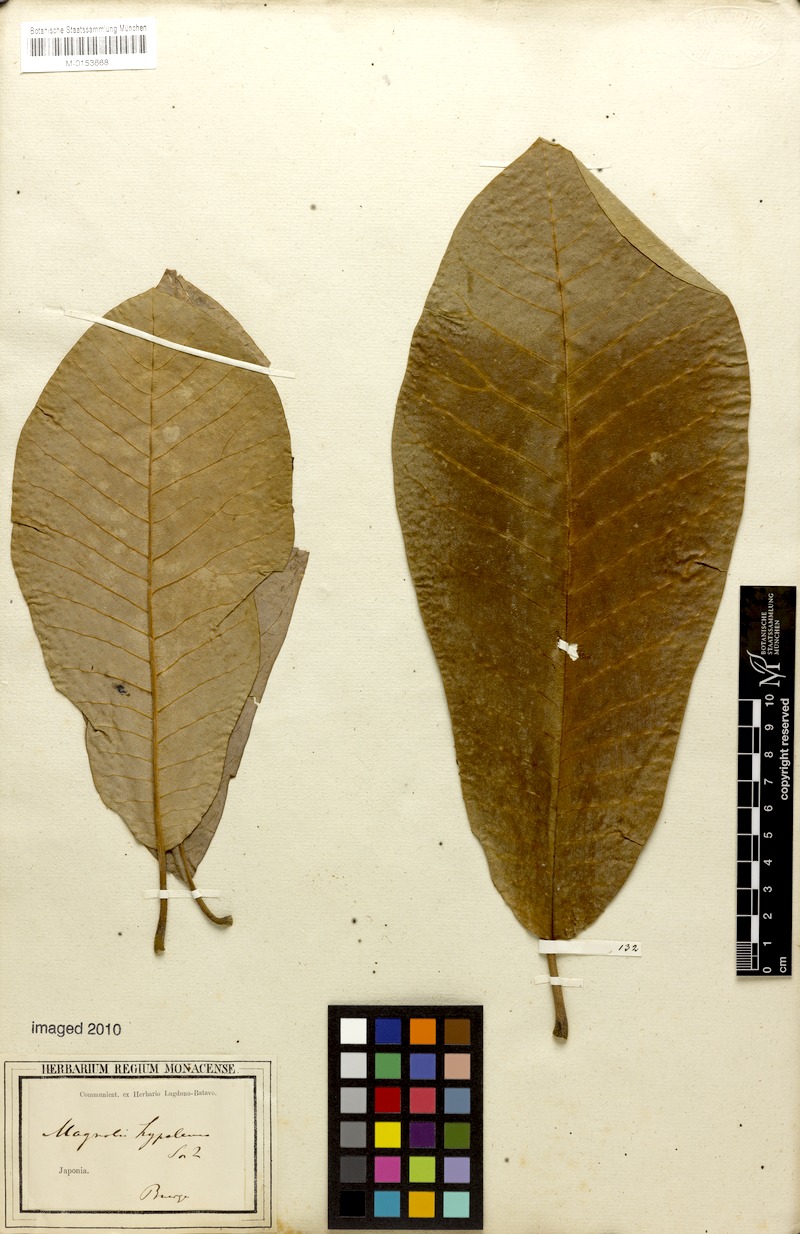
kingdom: Plantae
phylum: Tracheophyta
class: Magnoliopsida
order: Magnoliales
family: Magnoliaceae
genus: Magnolia
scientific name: Magnolia obovata
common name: Japanese whitebark magnolia
